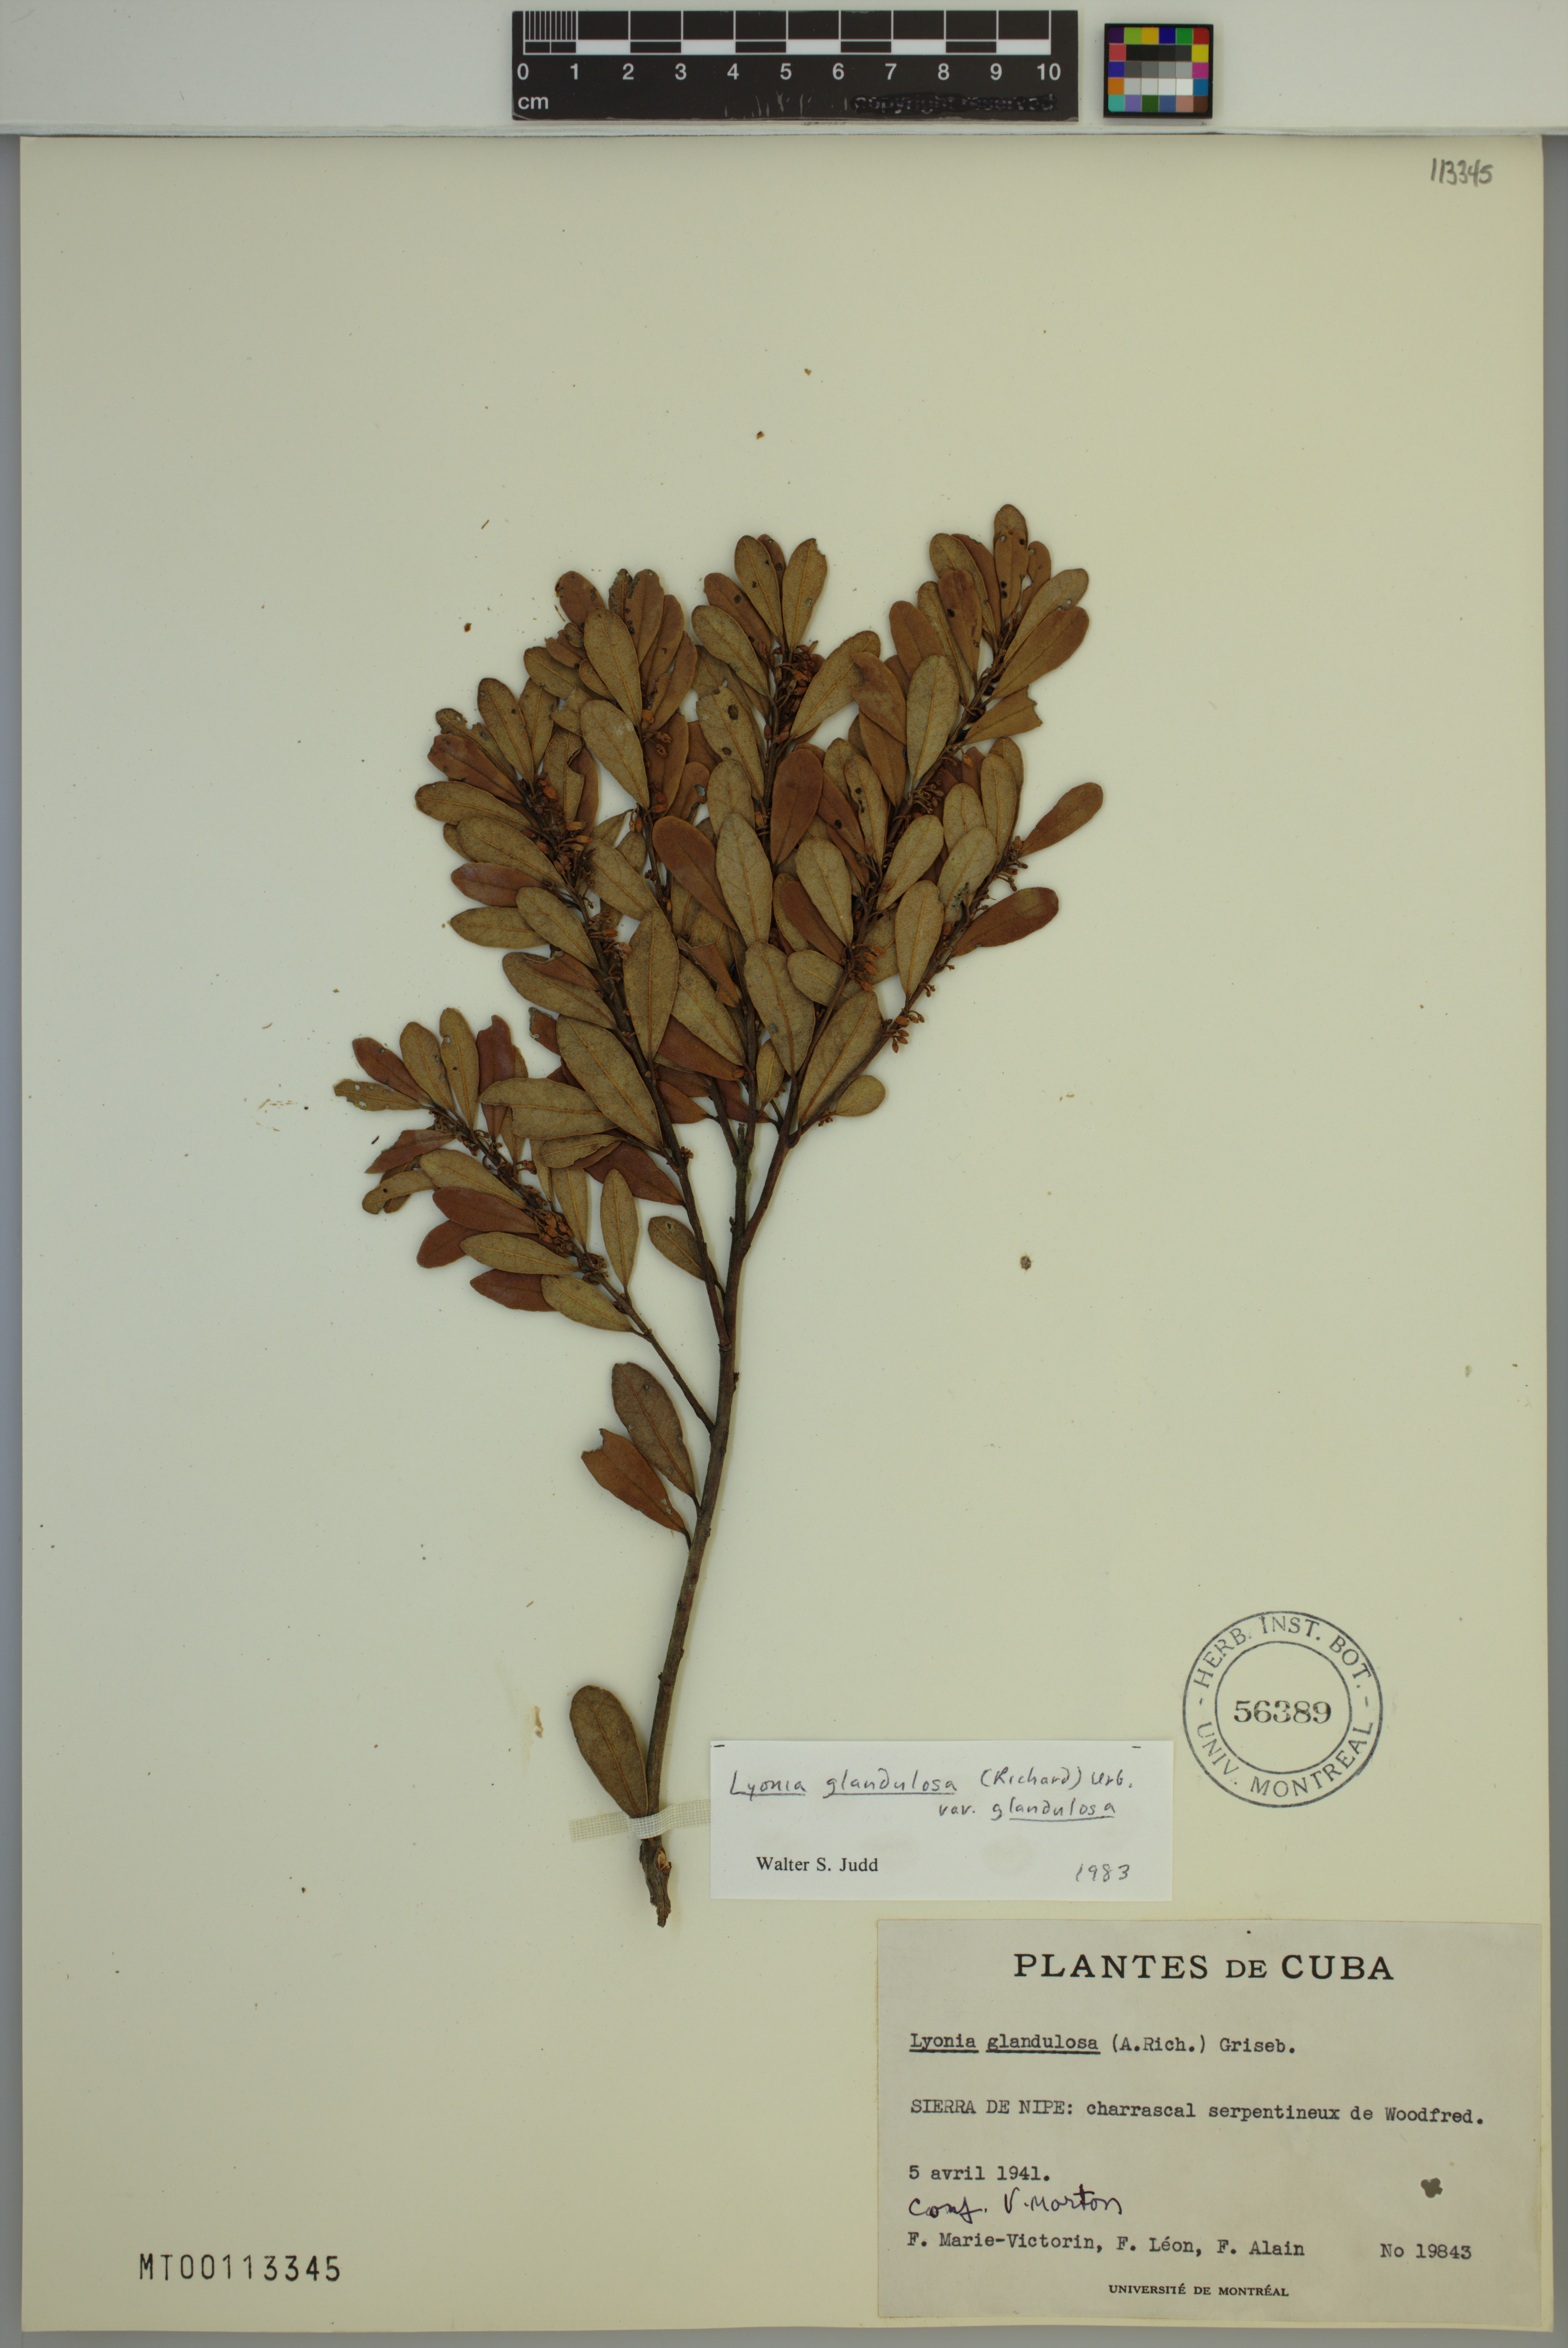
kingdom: Plantae
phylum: Tracheophyta
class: Magnoliopsida
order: Ericales
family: Ericaceae
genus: Lyonia
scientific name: Lyonia glandulosa
